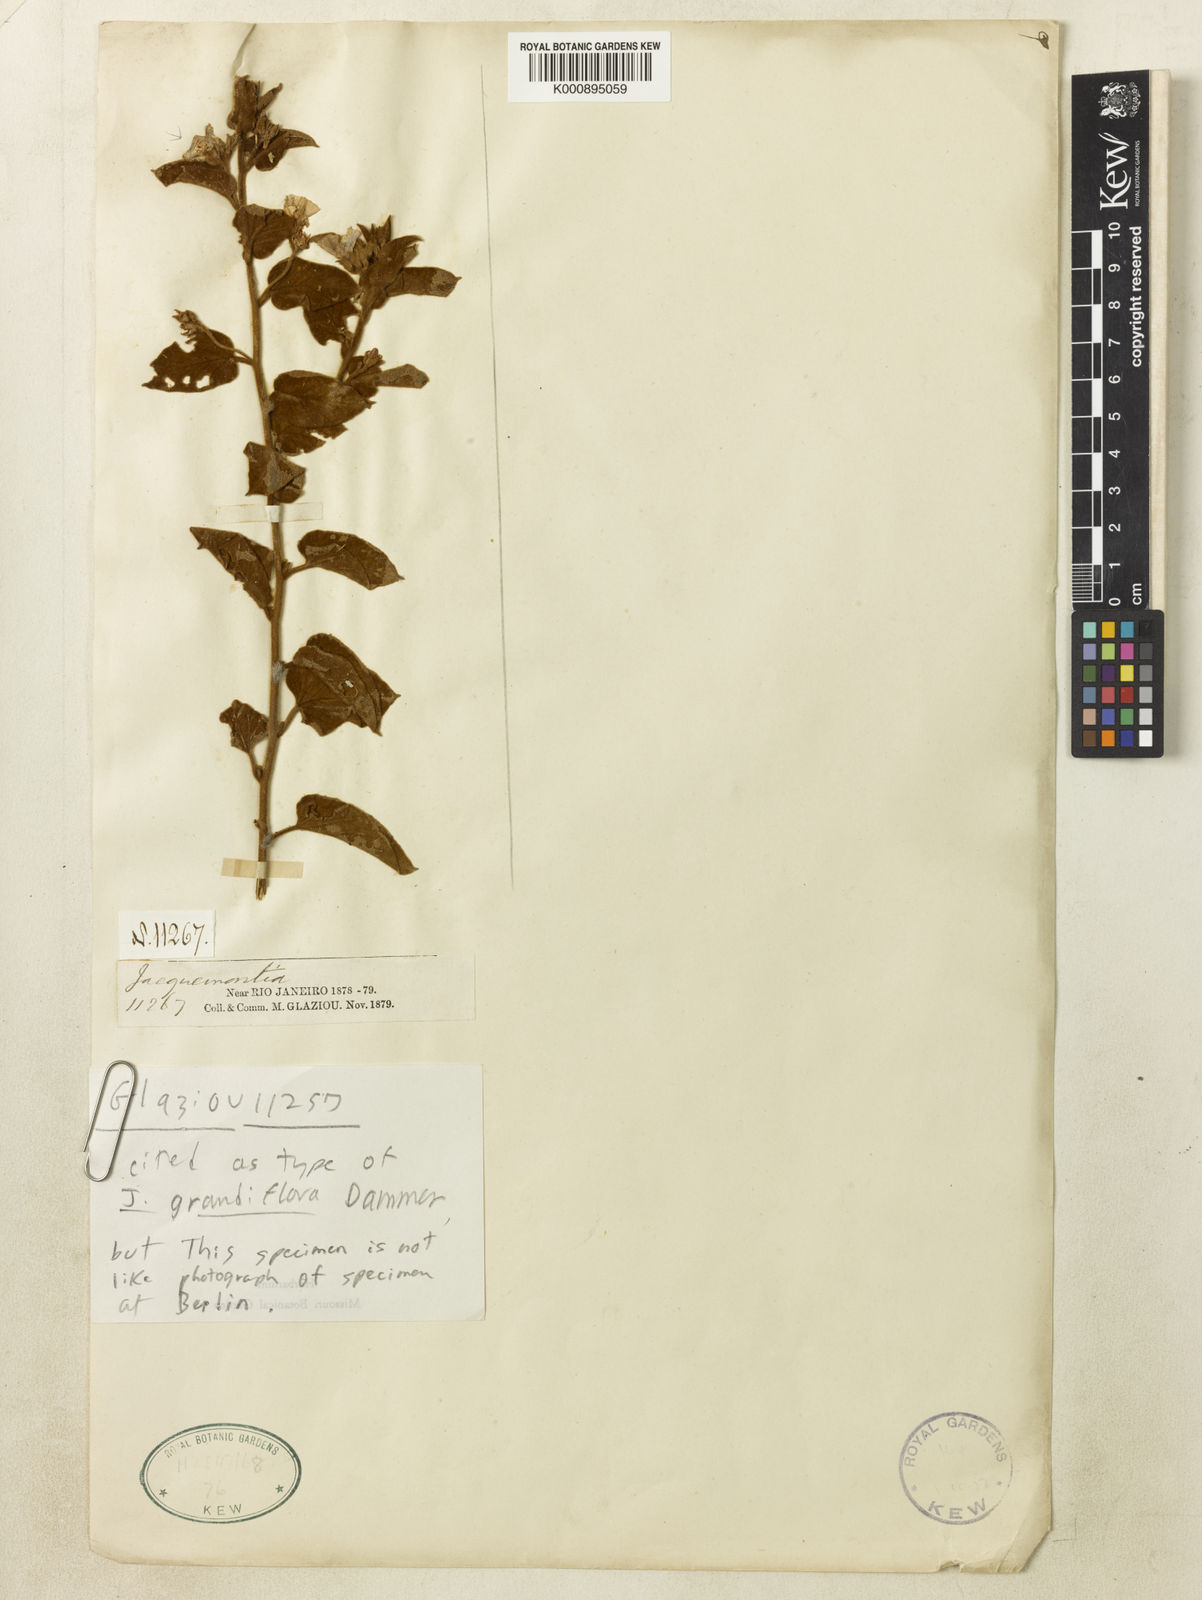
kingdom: Plantae
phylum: Tracheophyta
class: Magnoliopsida
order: Solanales
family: Convolvulaceae
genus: Jacquemontia
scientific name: Jacquemontia velloziana
